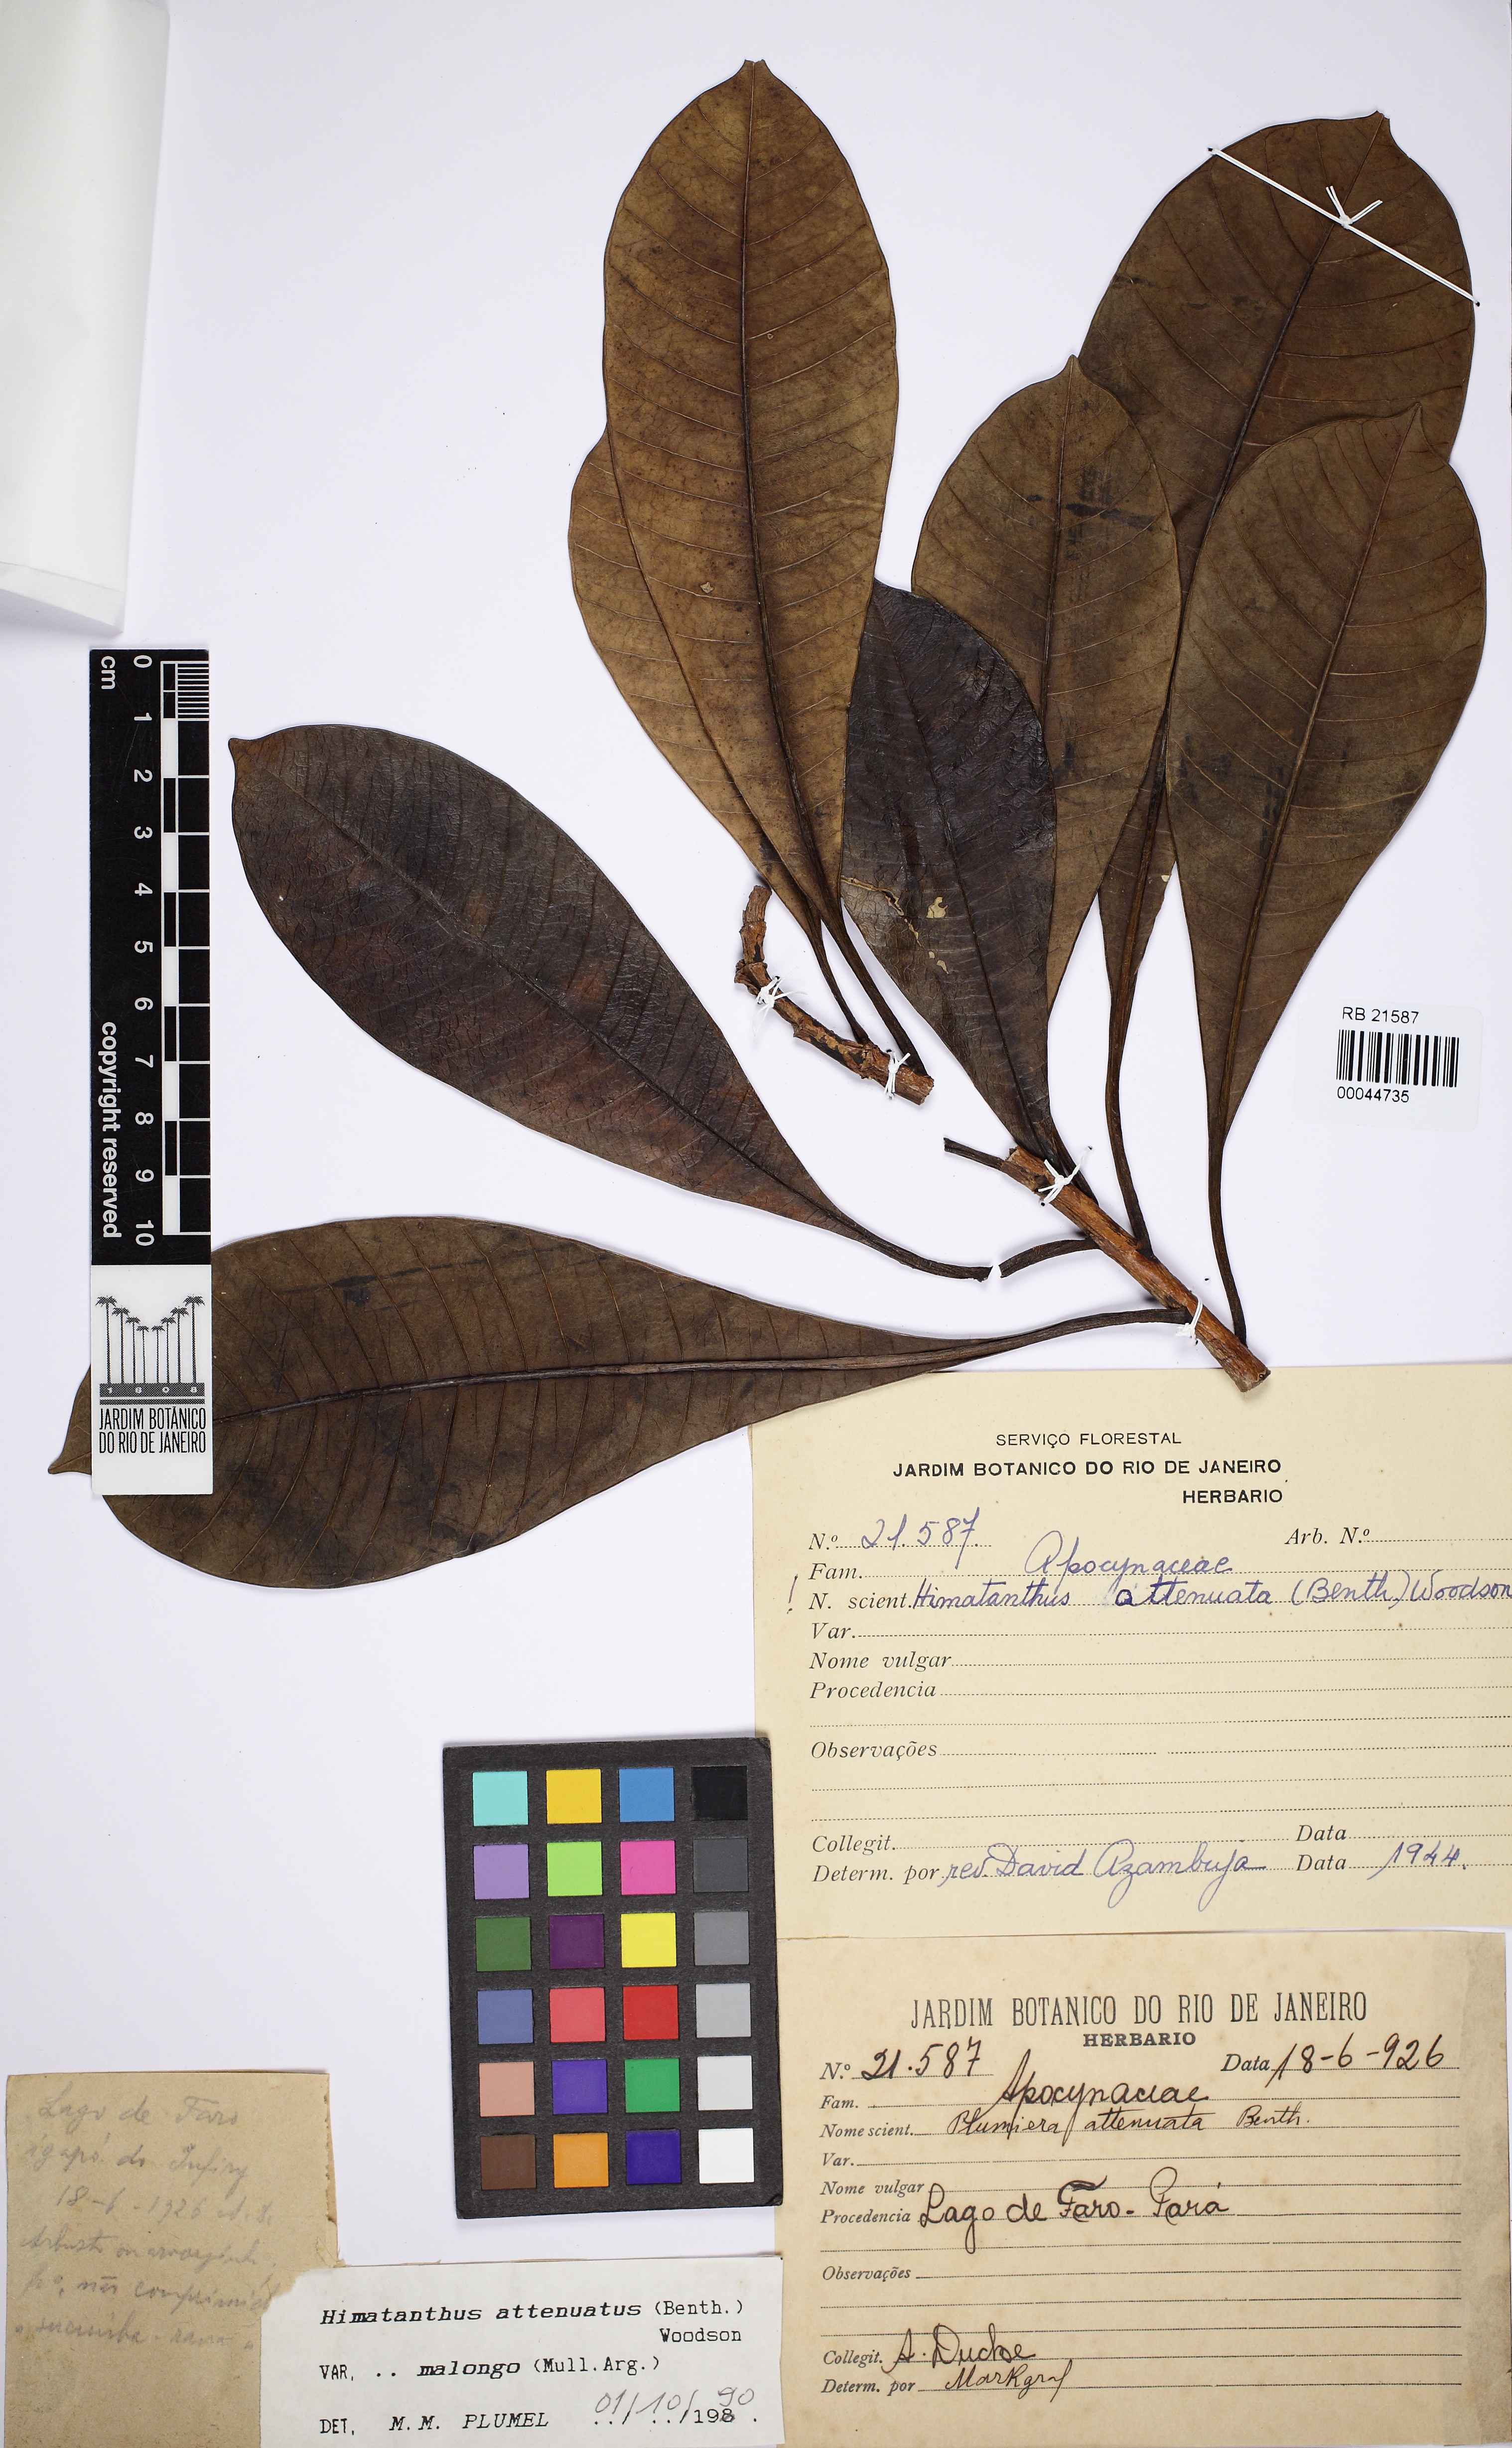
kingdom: Plantae
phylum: Tracheophyta
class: Magnoliopsida
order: Gentianales
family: Apocynaceae
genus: Himatanthus
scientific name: Himatanthus attenuatus
